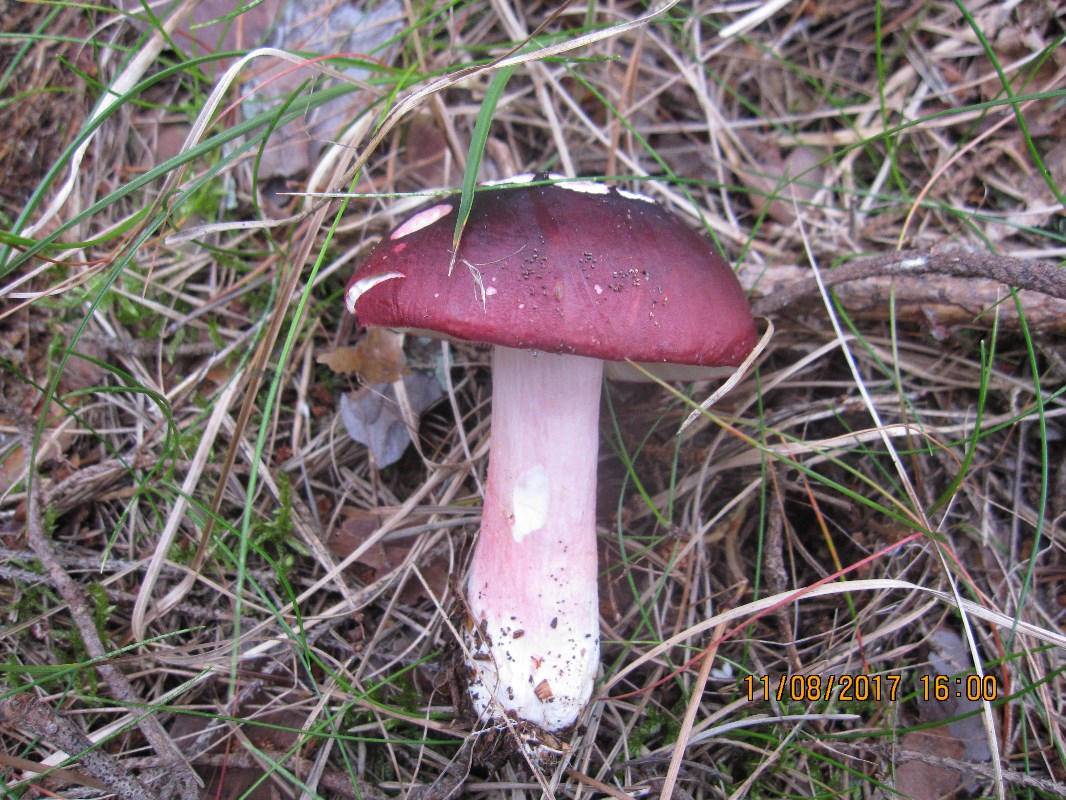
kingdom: Fungi
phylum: Basidiomycota
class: Agaricomycetes
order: Russulales
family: Russulaceae
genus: Russula
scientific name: Russula xerampelina
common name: hummer-skørhat
